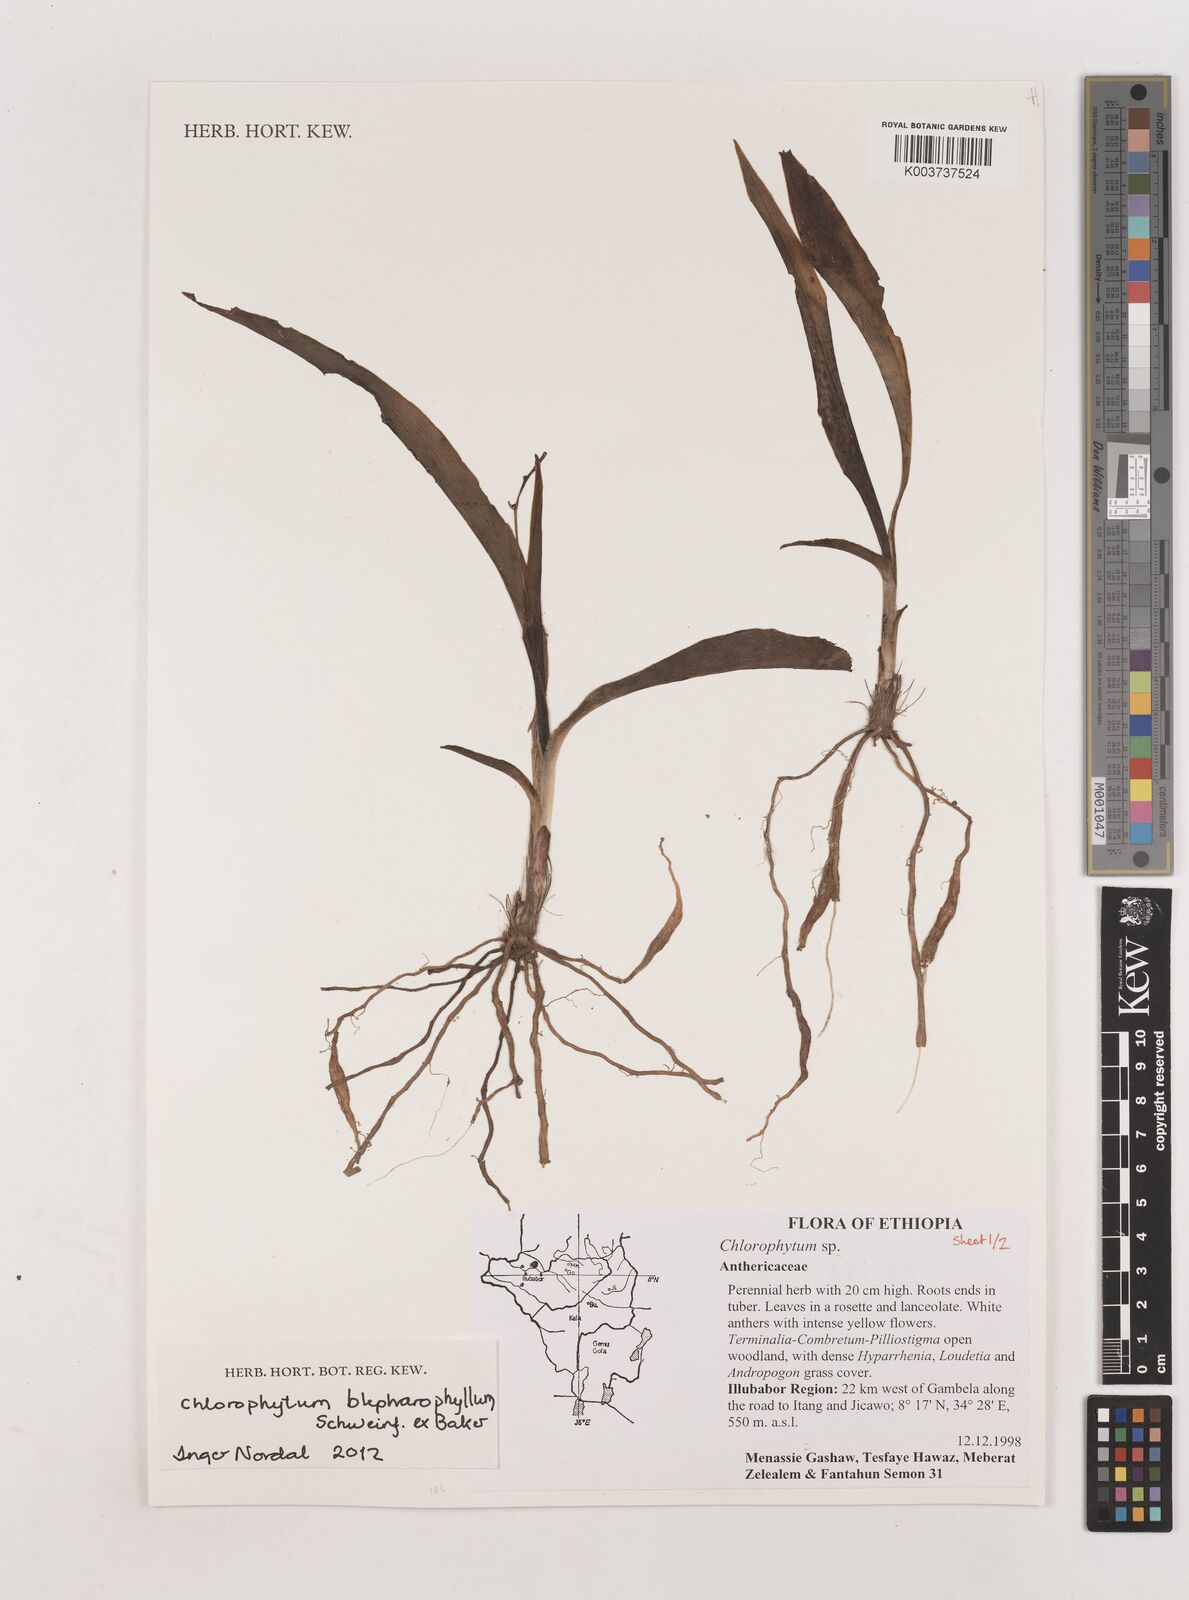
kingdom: Plantae
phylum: Tracheophyta
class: Liliopsida
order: Asparagales
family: Asparagaceae
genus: Chlorophytum
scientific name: Chlorophytum blepharophyllum
